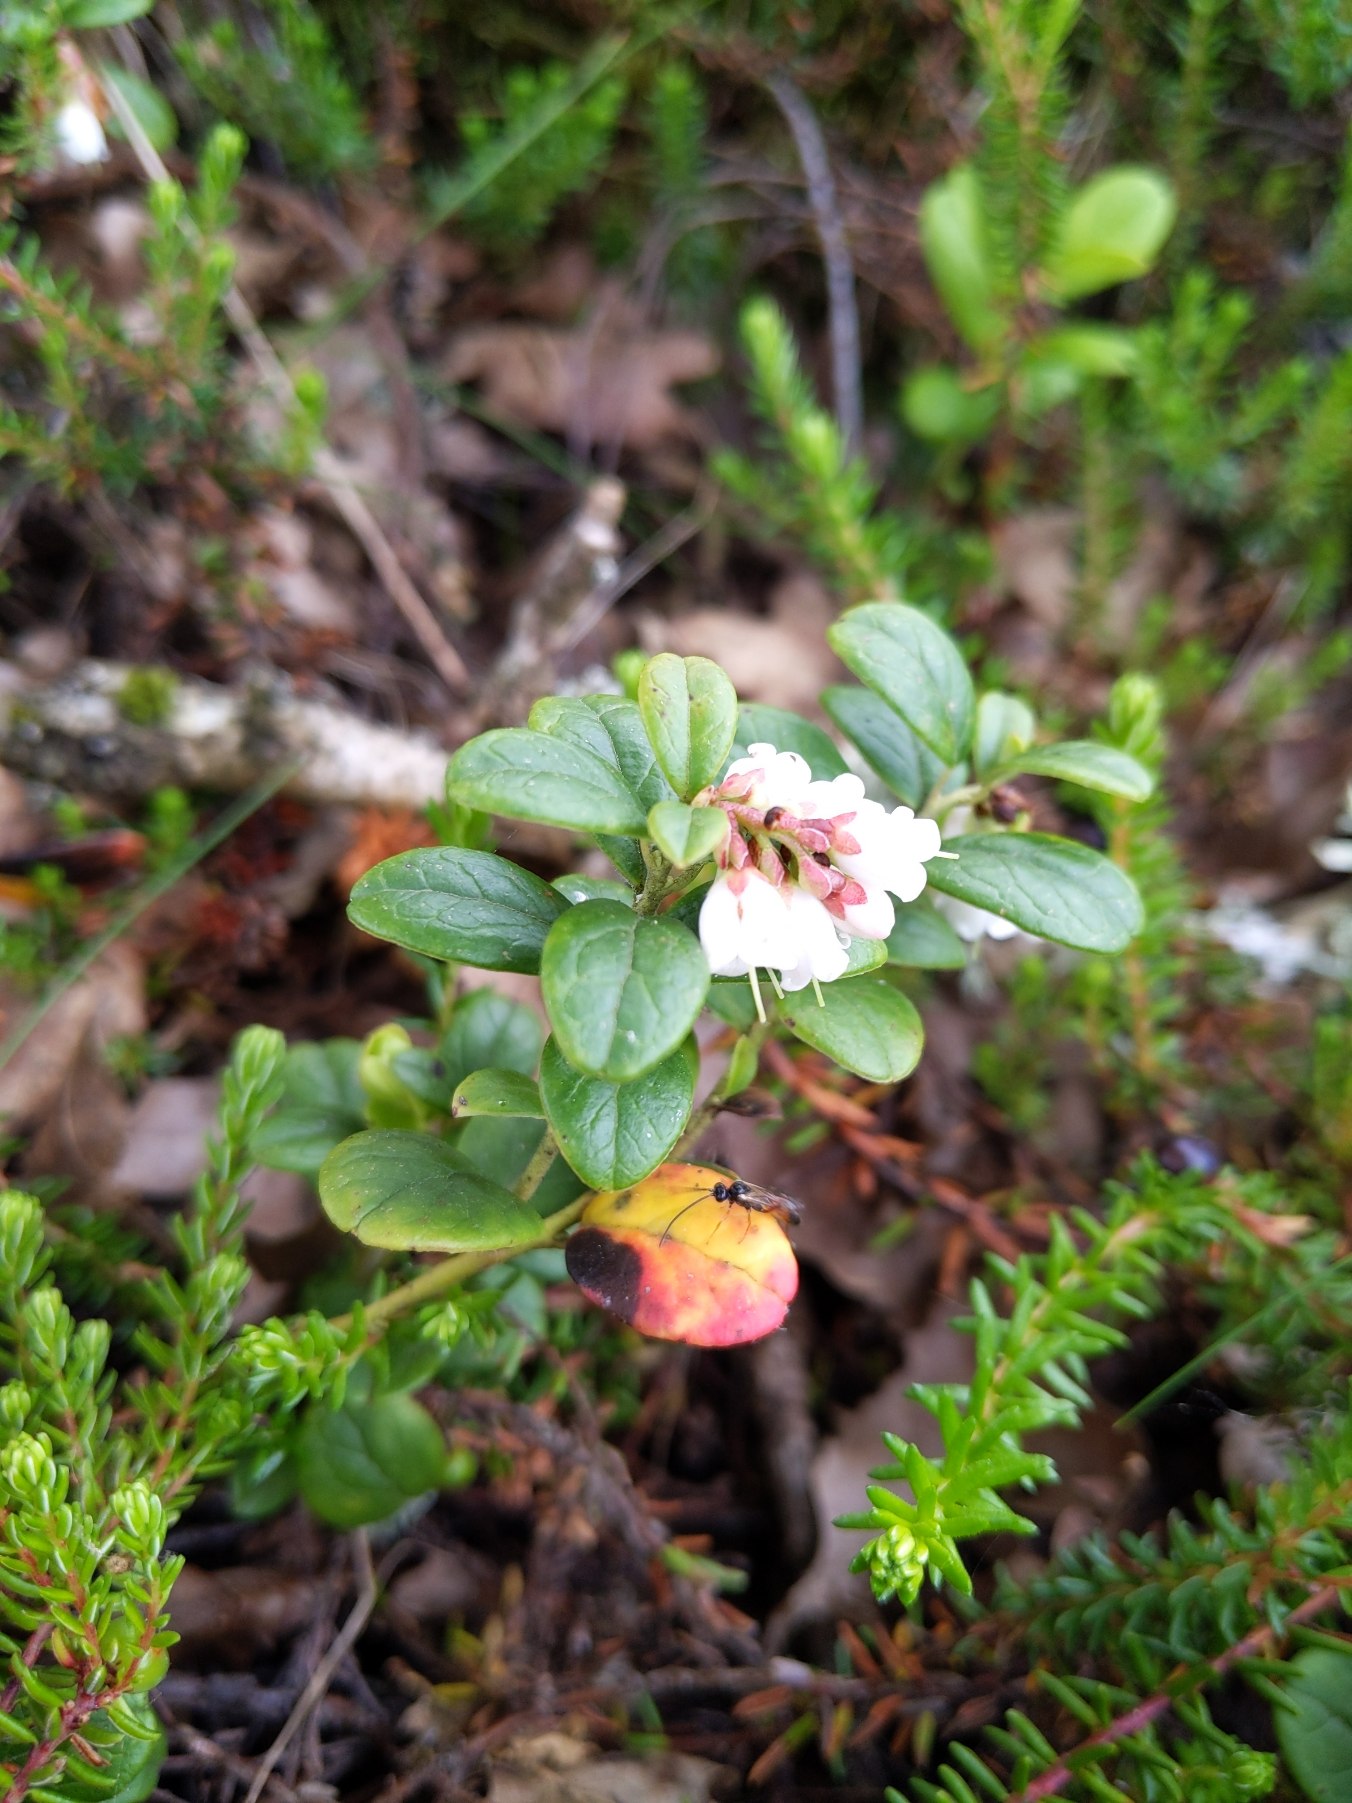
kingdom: Plantae
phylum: Tracheophyta
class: Magnoliopsida
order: Ericales
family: Ericaceae
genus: Vaccinium
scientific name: Vaccinium vitis-idaea
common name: Tyttebær
